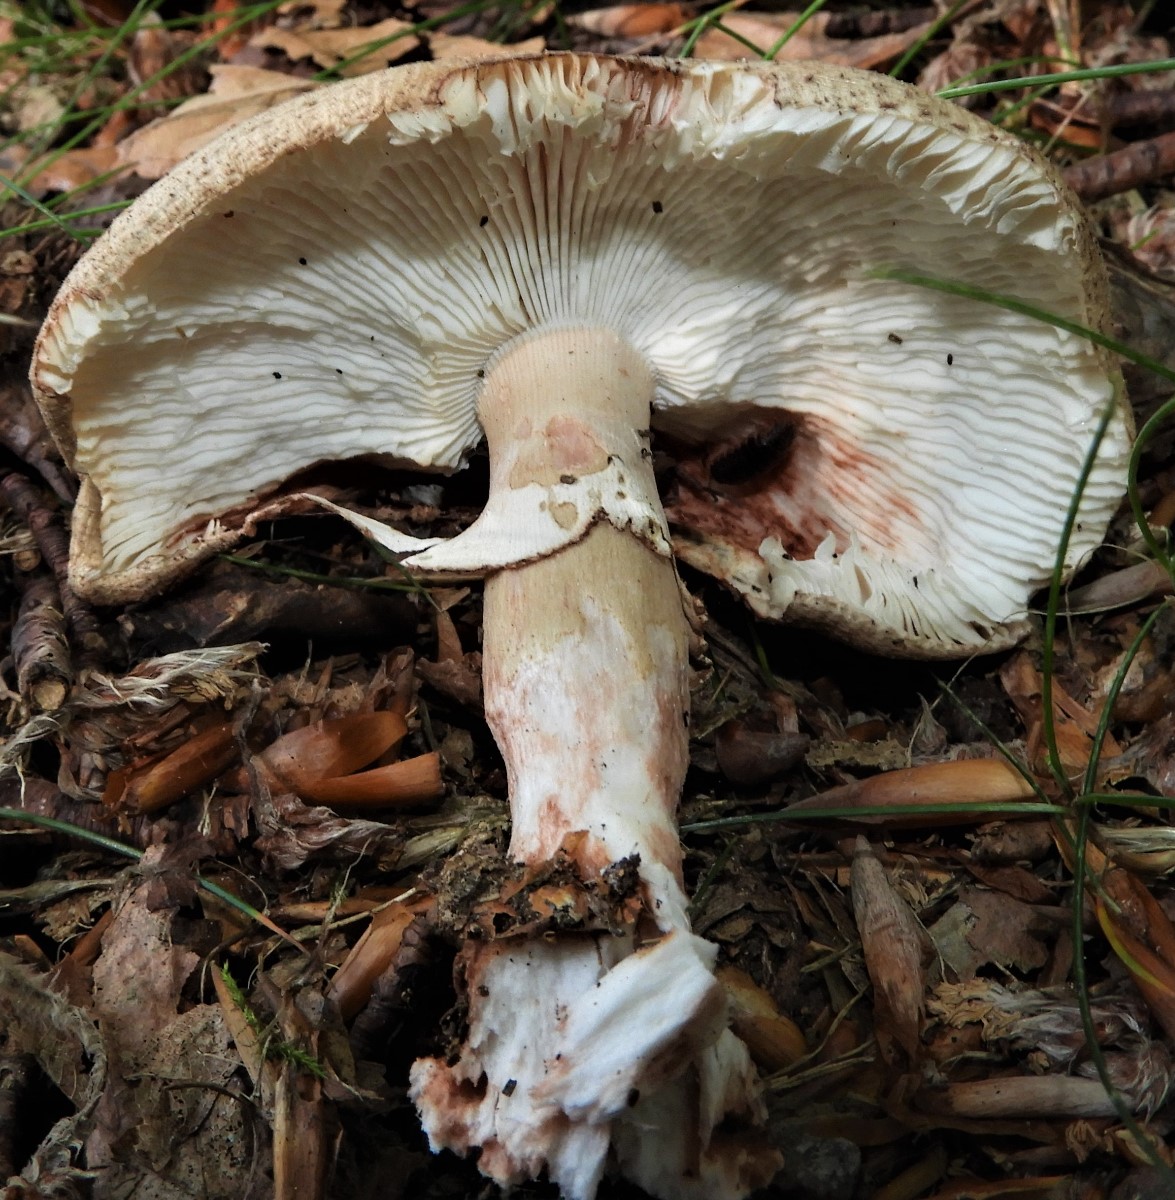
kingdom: Fungi
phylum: Basidiomycota
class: Agaricomycetes
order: Agaricales
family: Amanitaceae
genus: Amanita
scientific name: Amanita rubescens
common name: rødmende fluesvamp
